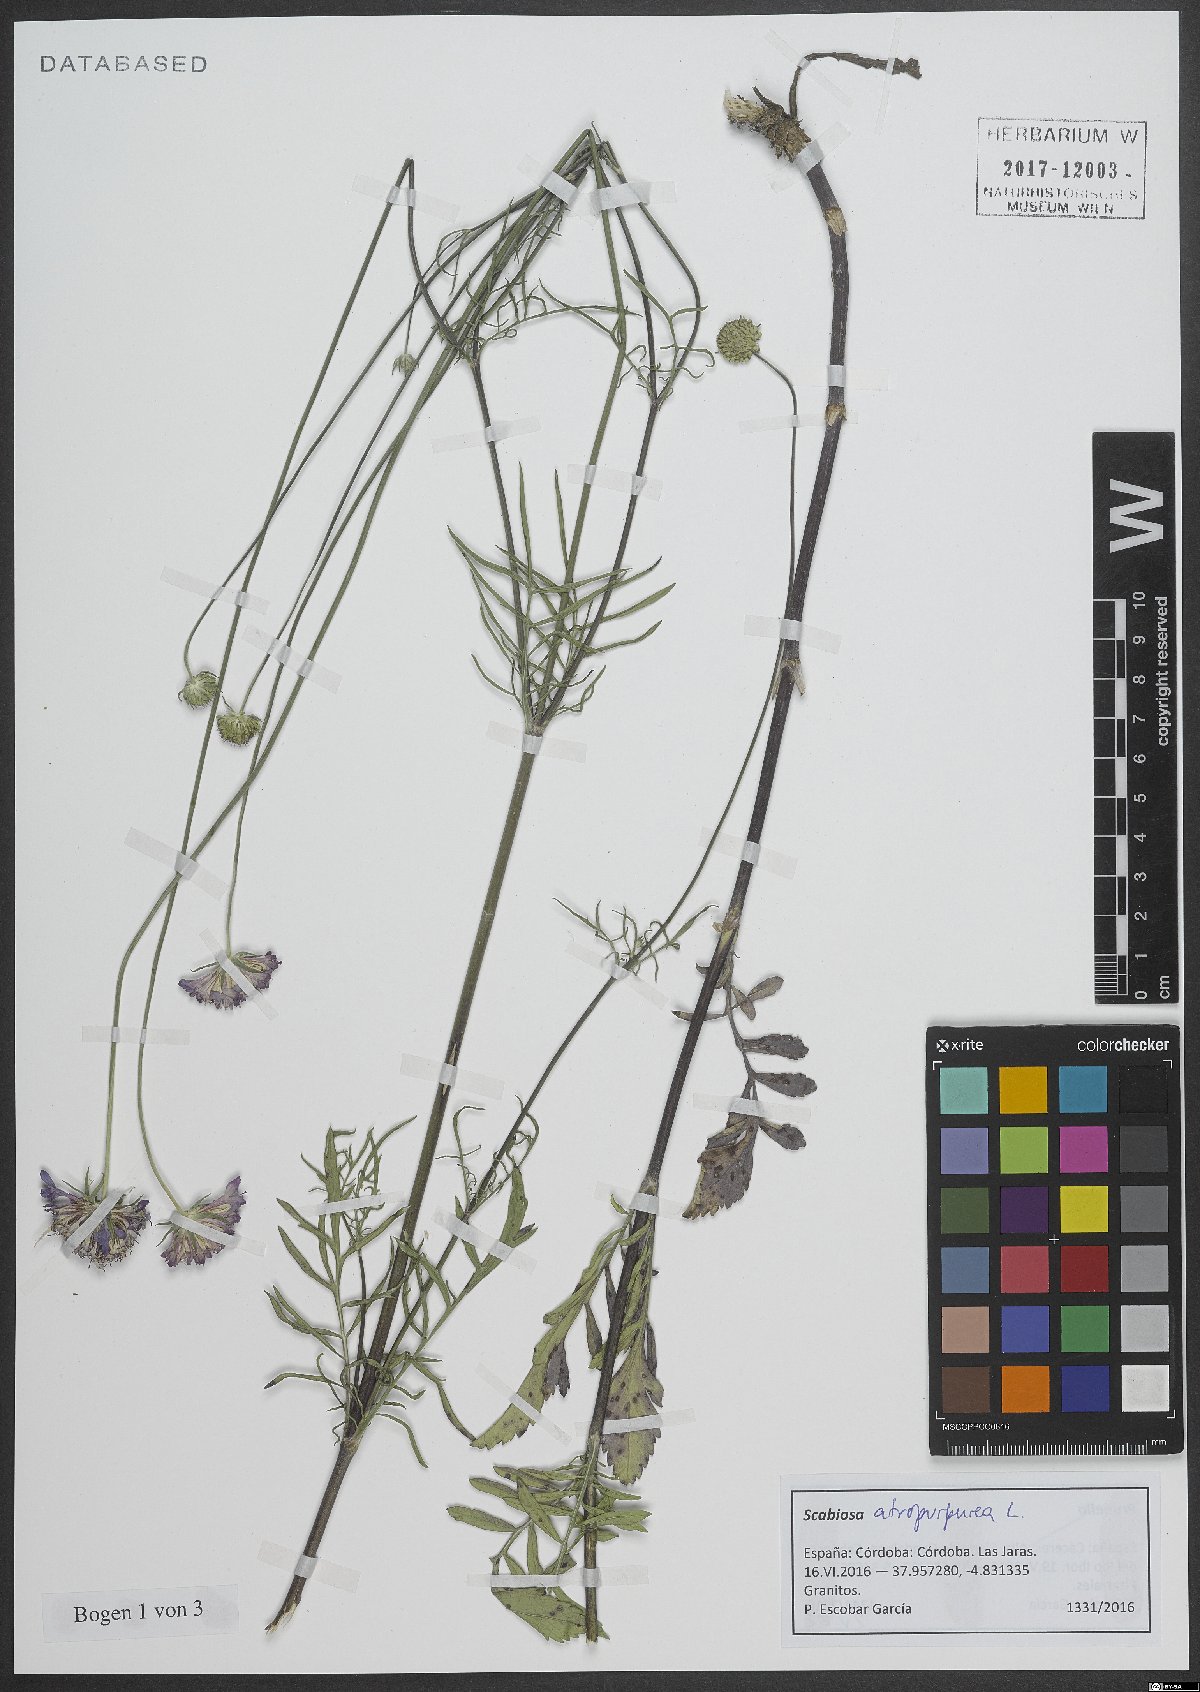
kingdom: Plantae
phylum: Tracheophyta
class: Magnoliopsida
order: Dipsacales
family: Caprifoliaceae
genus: Sixalix
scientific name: Sixalix atropurpurea
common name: Sweet scabious
